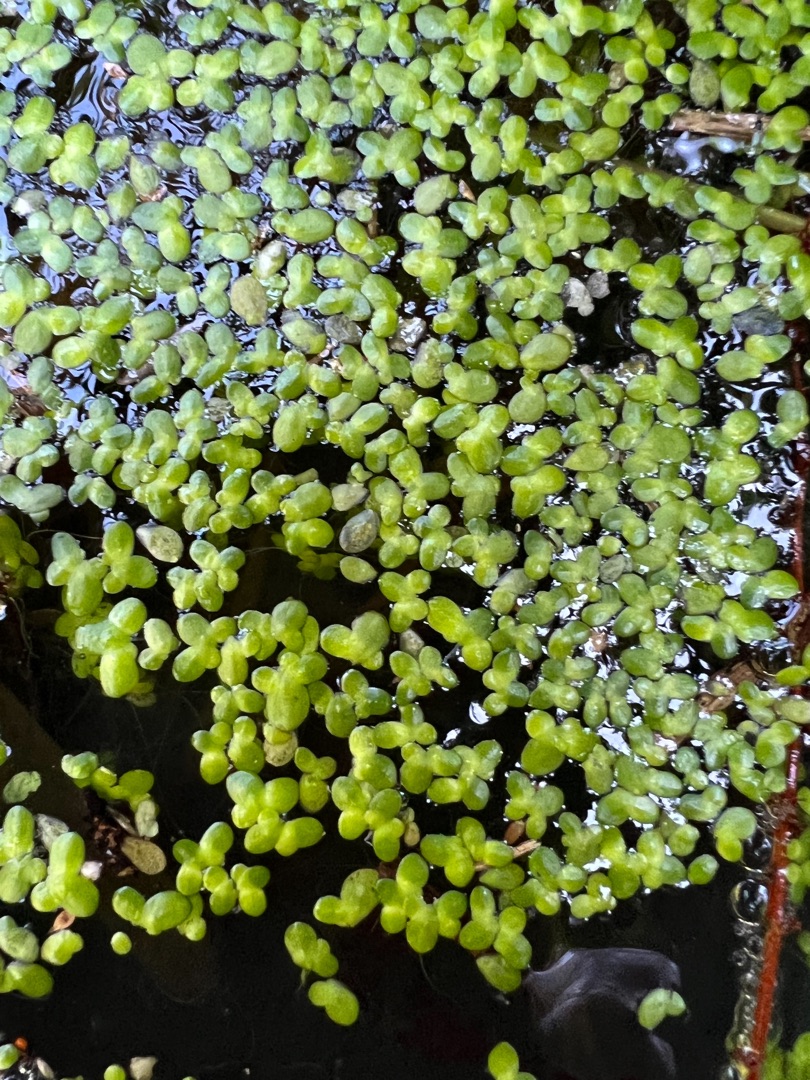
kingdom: Plantae
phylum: Tracheophyta
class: Liliopsida
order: Alismatales
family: Araceae
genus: Lemna
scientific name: Lemna minor
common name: Liden andemad
